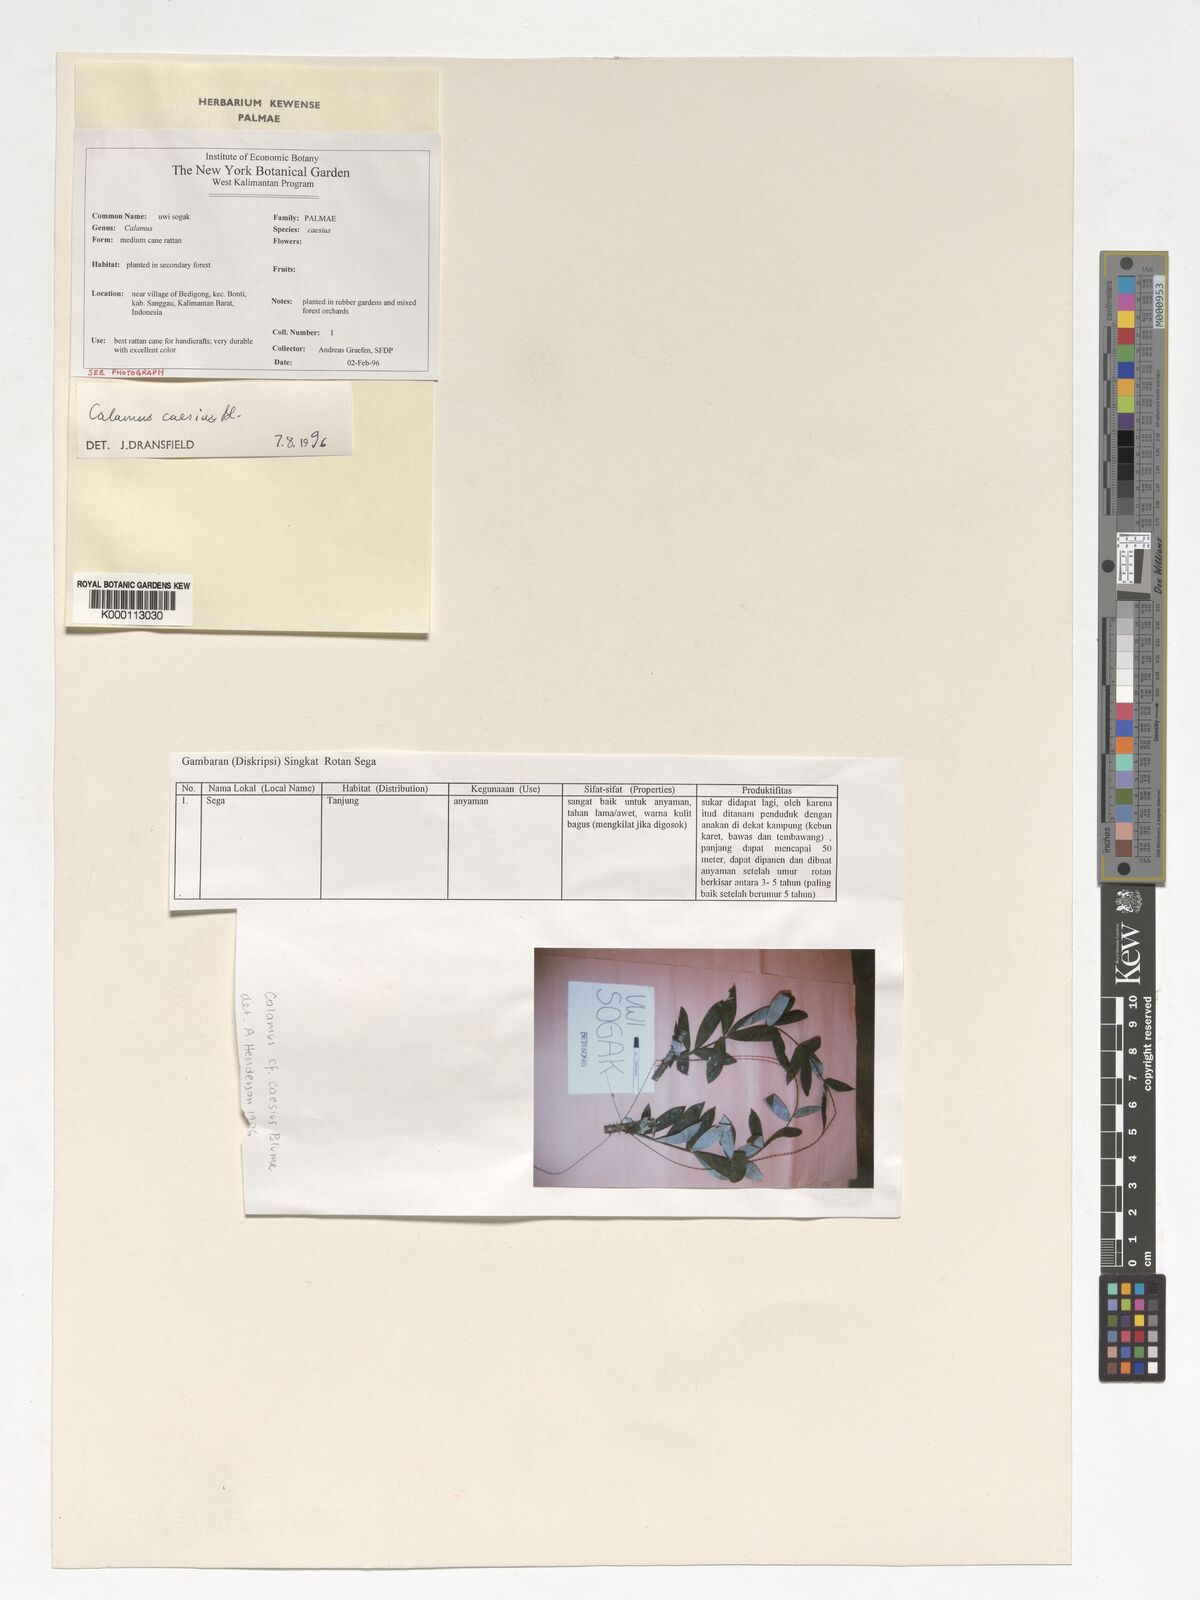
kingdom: Plantae
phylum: Tracheophyta
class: Liliopsida
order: Arecales
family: Arecaceae
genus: Calamus
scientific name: Calamus caesius
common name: Rattan palm
